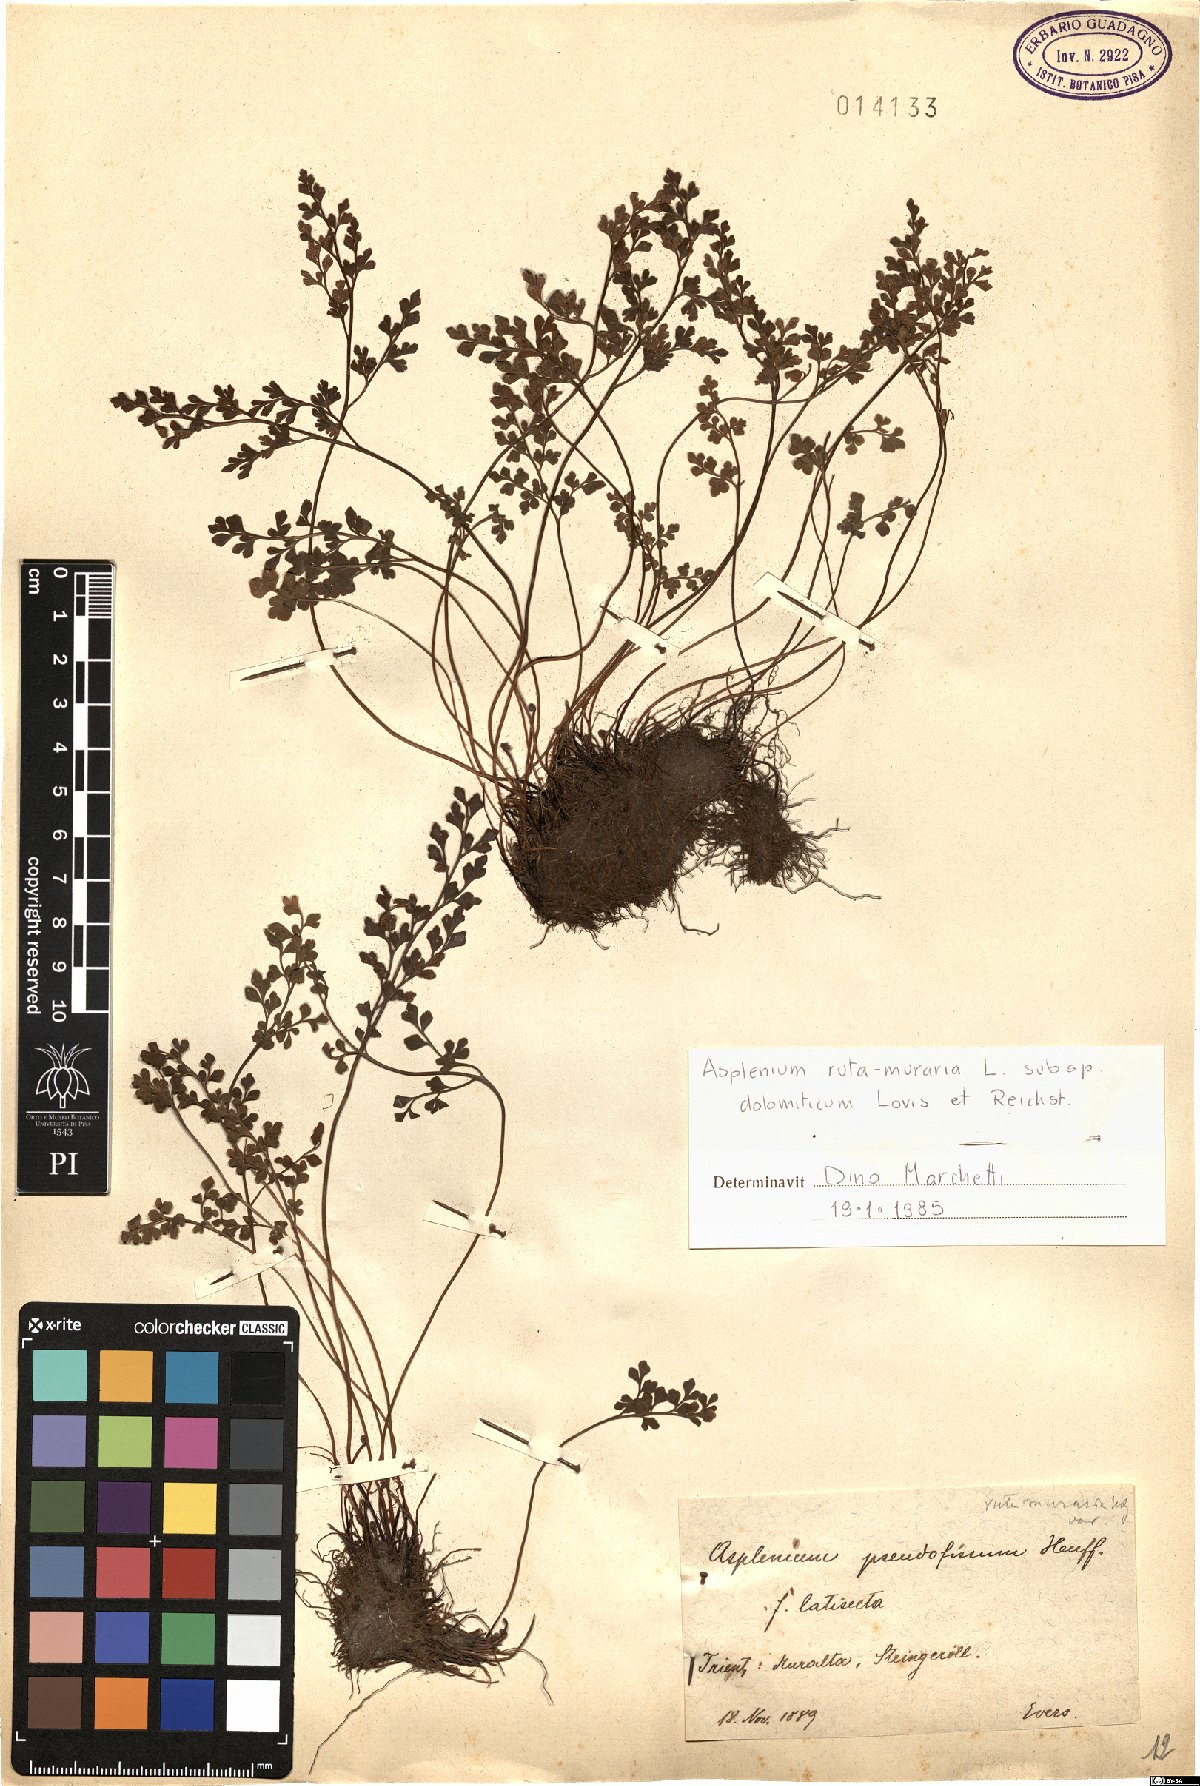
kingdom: Plantae
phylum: Tracheophyta
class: Polypodiopsida
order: Polypodiales
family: Aspleniaceae
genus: Asplenium
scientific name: Asplenium ruta-muraria
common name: Wall-rue
